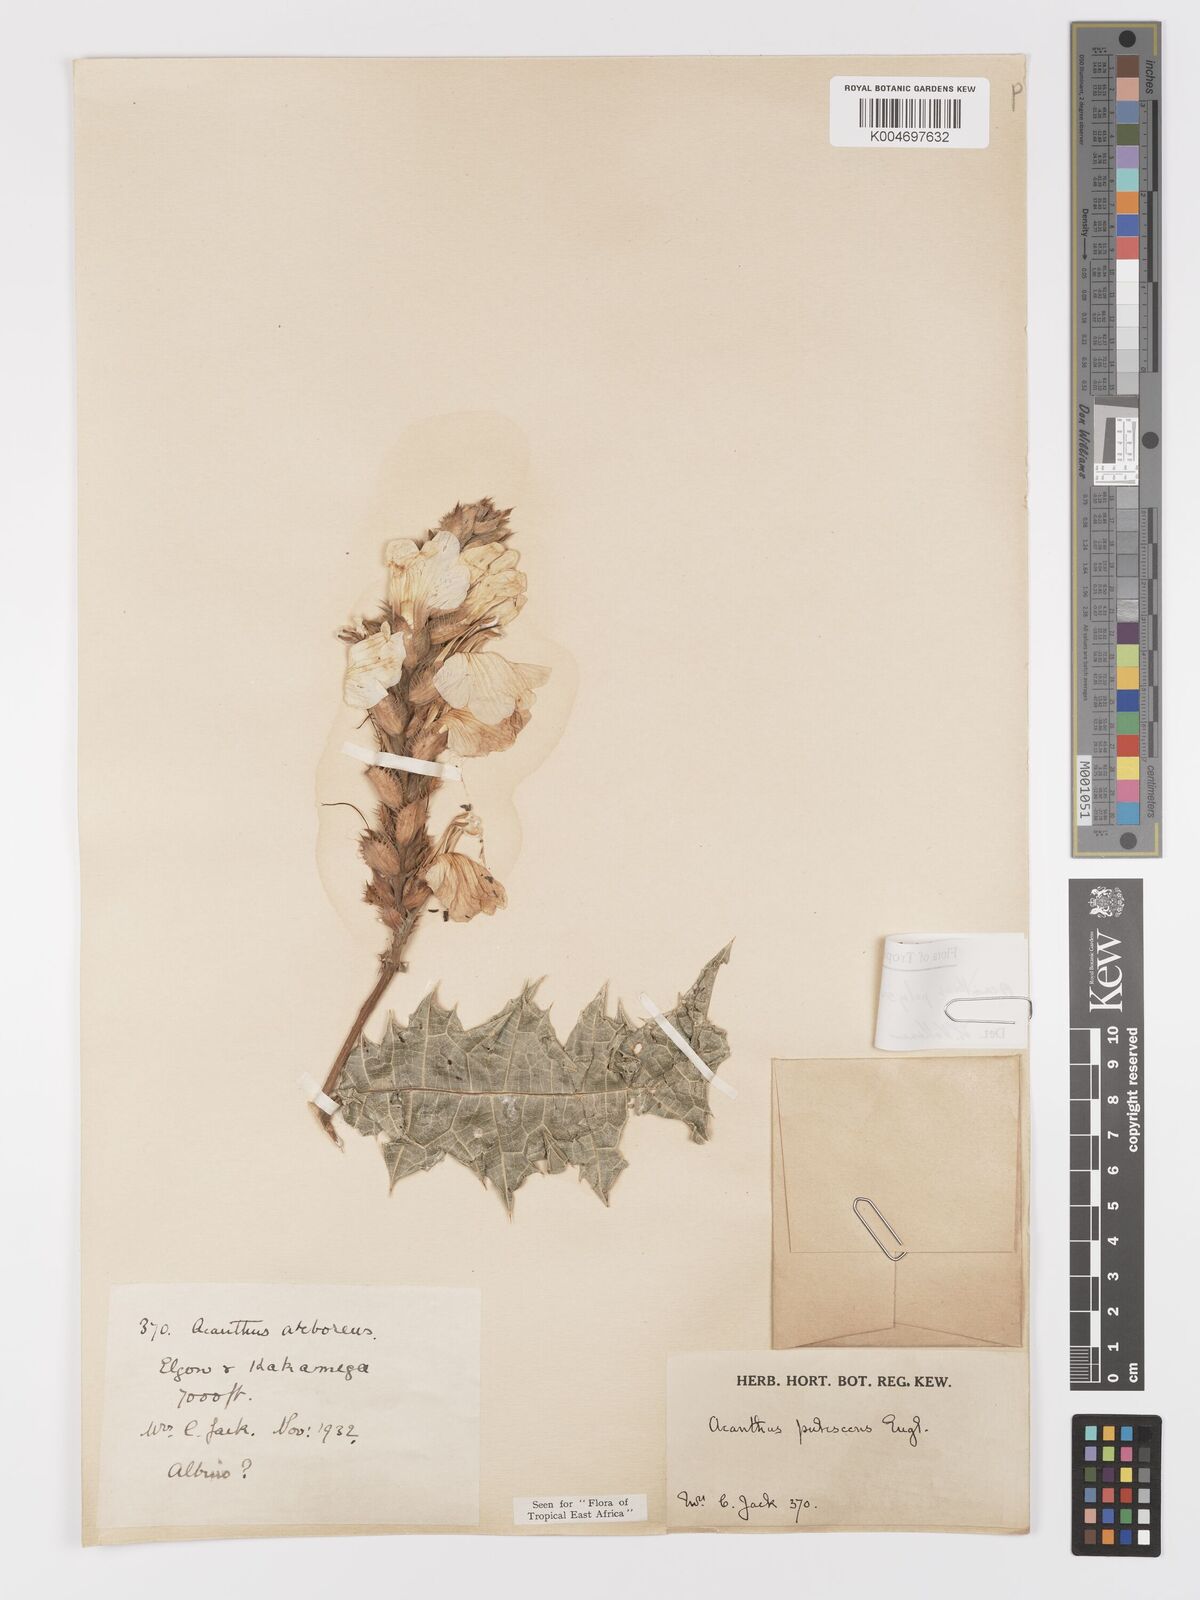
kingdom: Plantae
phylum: Tracheophyta
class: Magnoliopsida
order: Lamiales
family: Acanthaceae
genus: Acanthus
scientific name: Acanthus polystachyus
